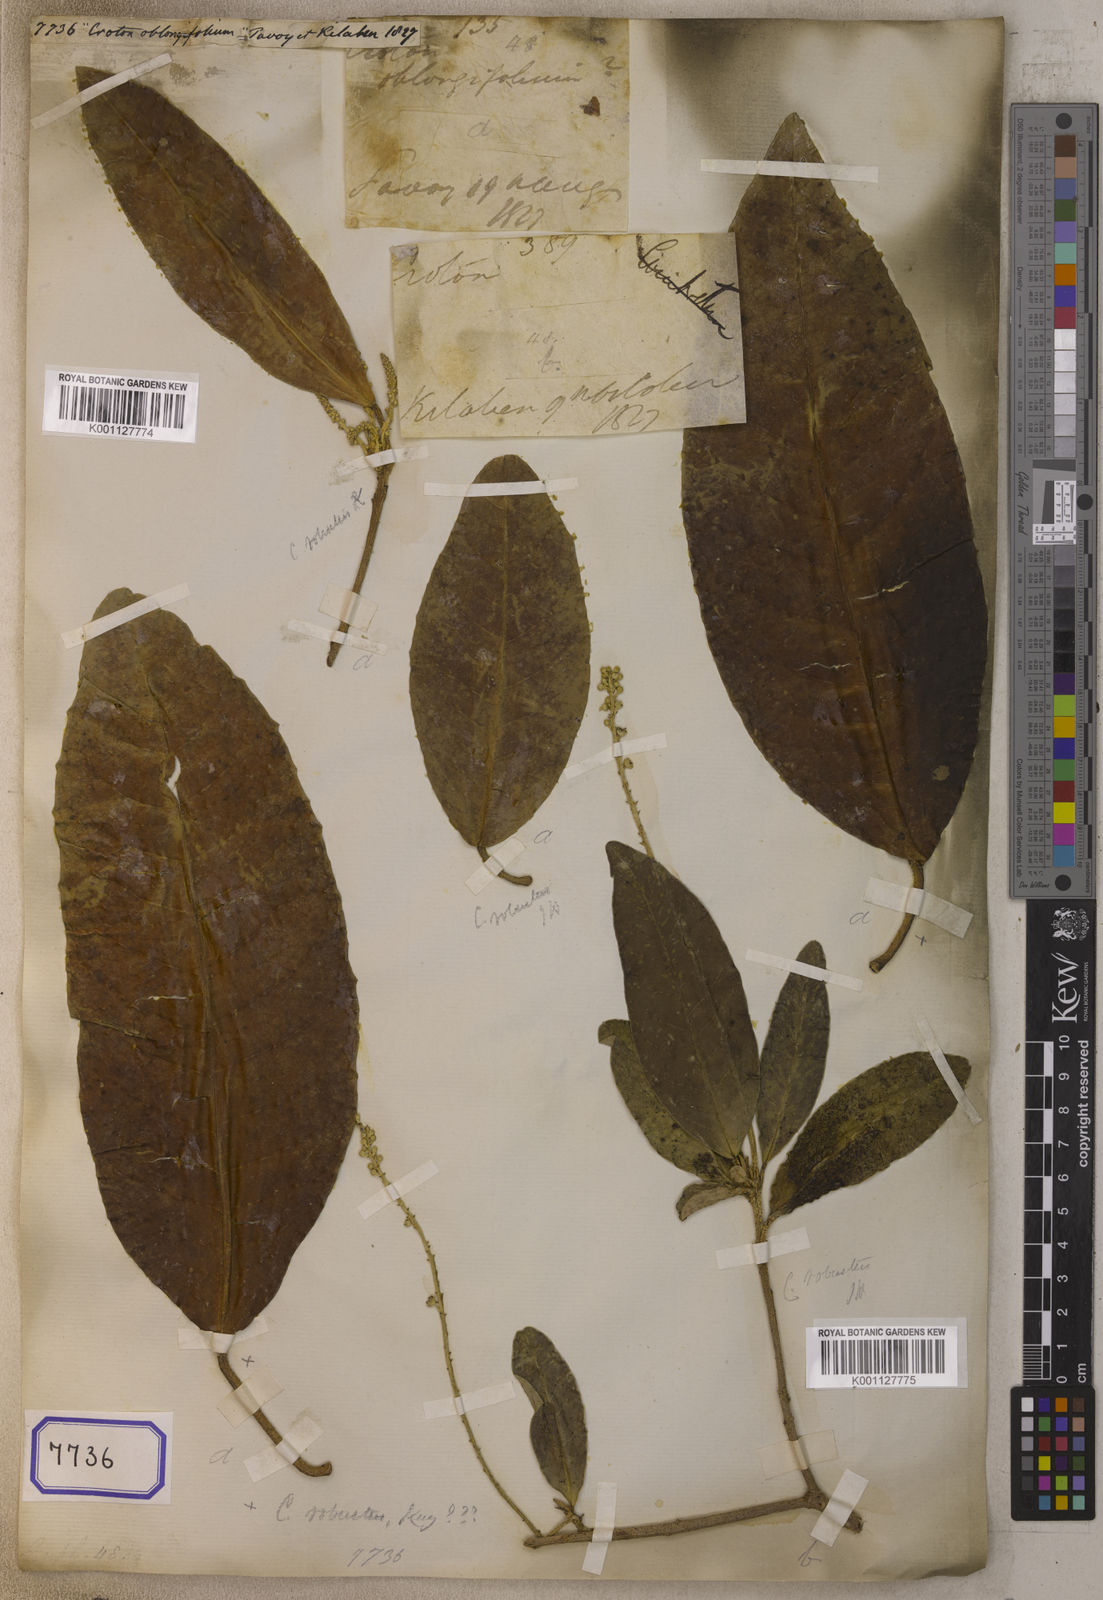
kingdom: Plantae
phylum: Tracheophyta
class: Magnoliopsida
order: Malpighiales
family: Euphorbiaceae
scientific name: Euphorbiaceae
